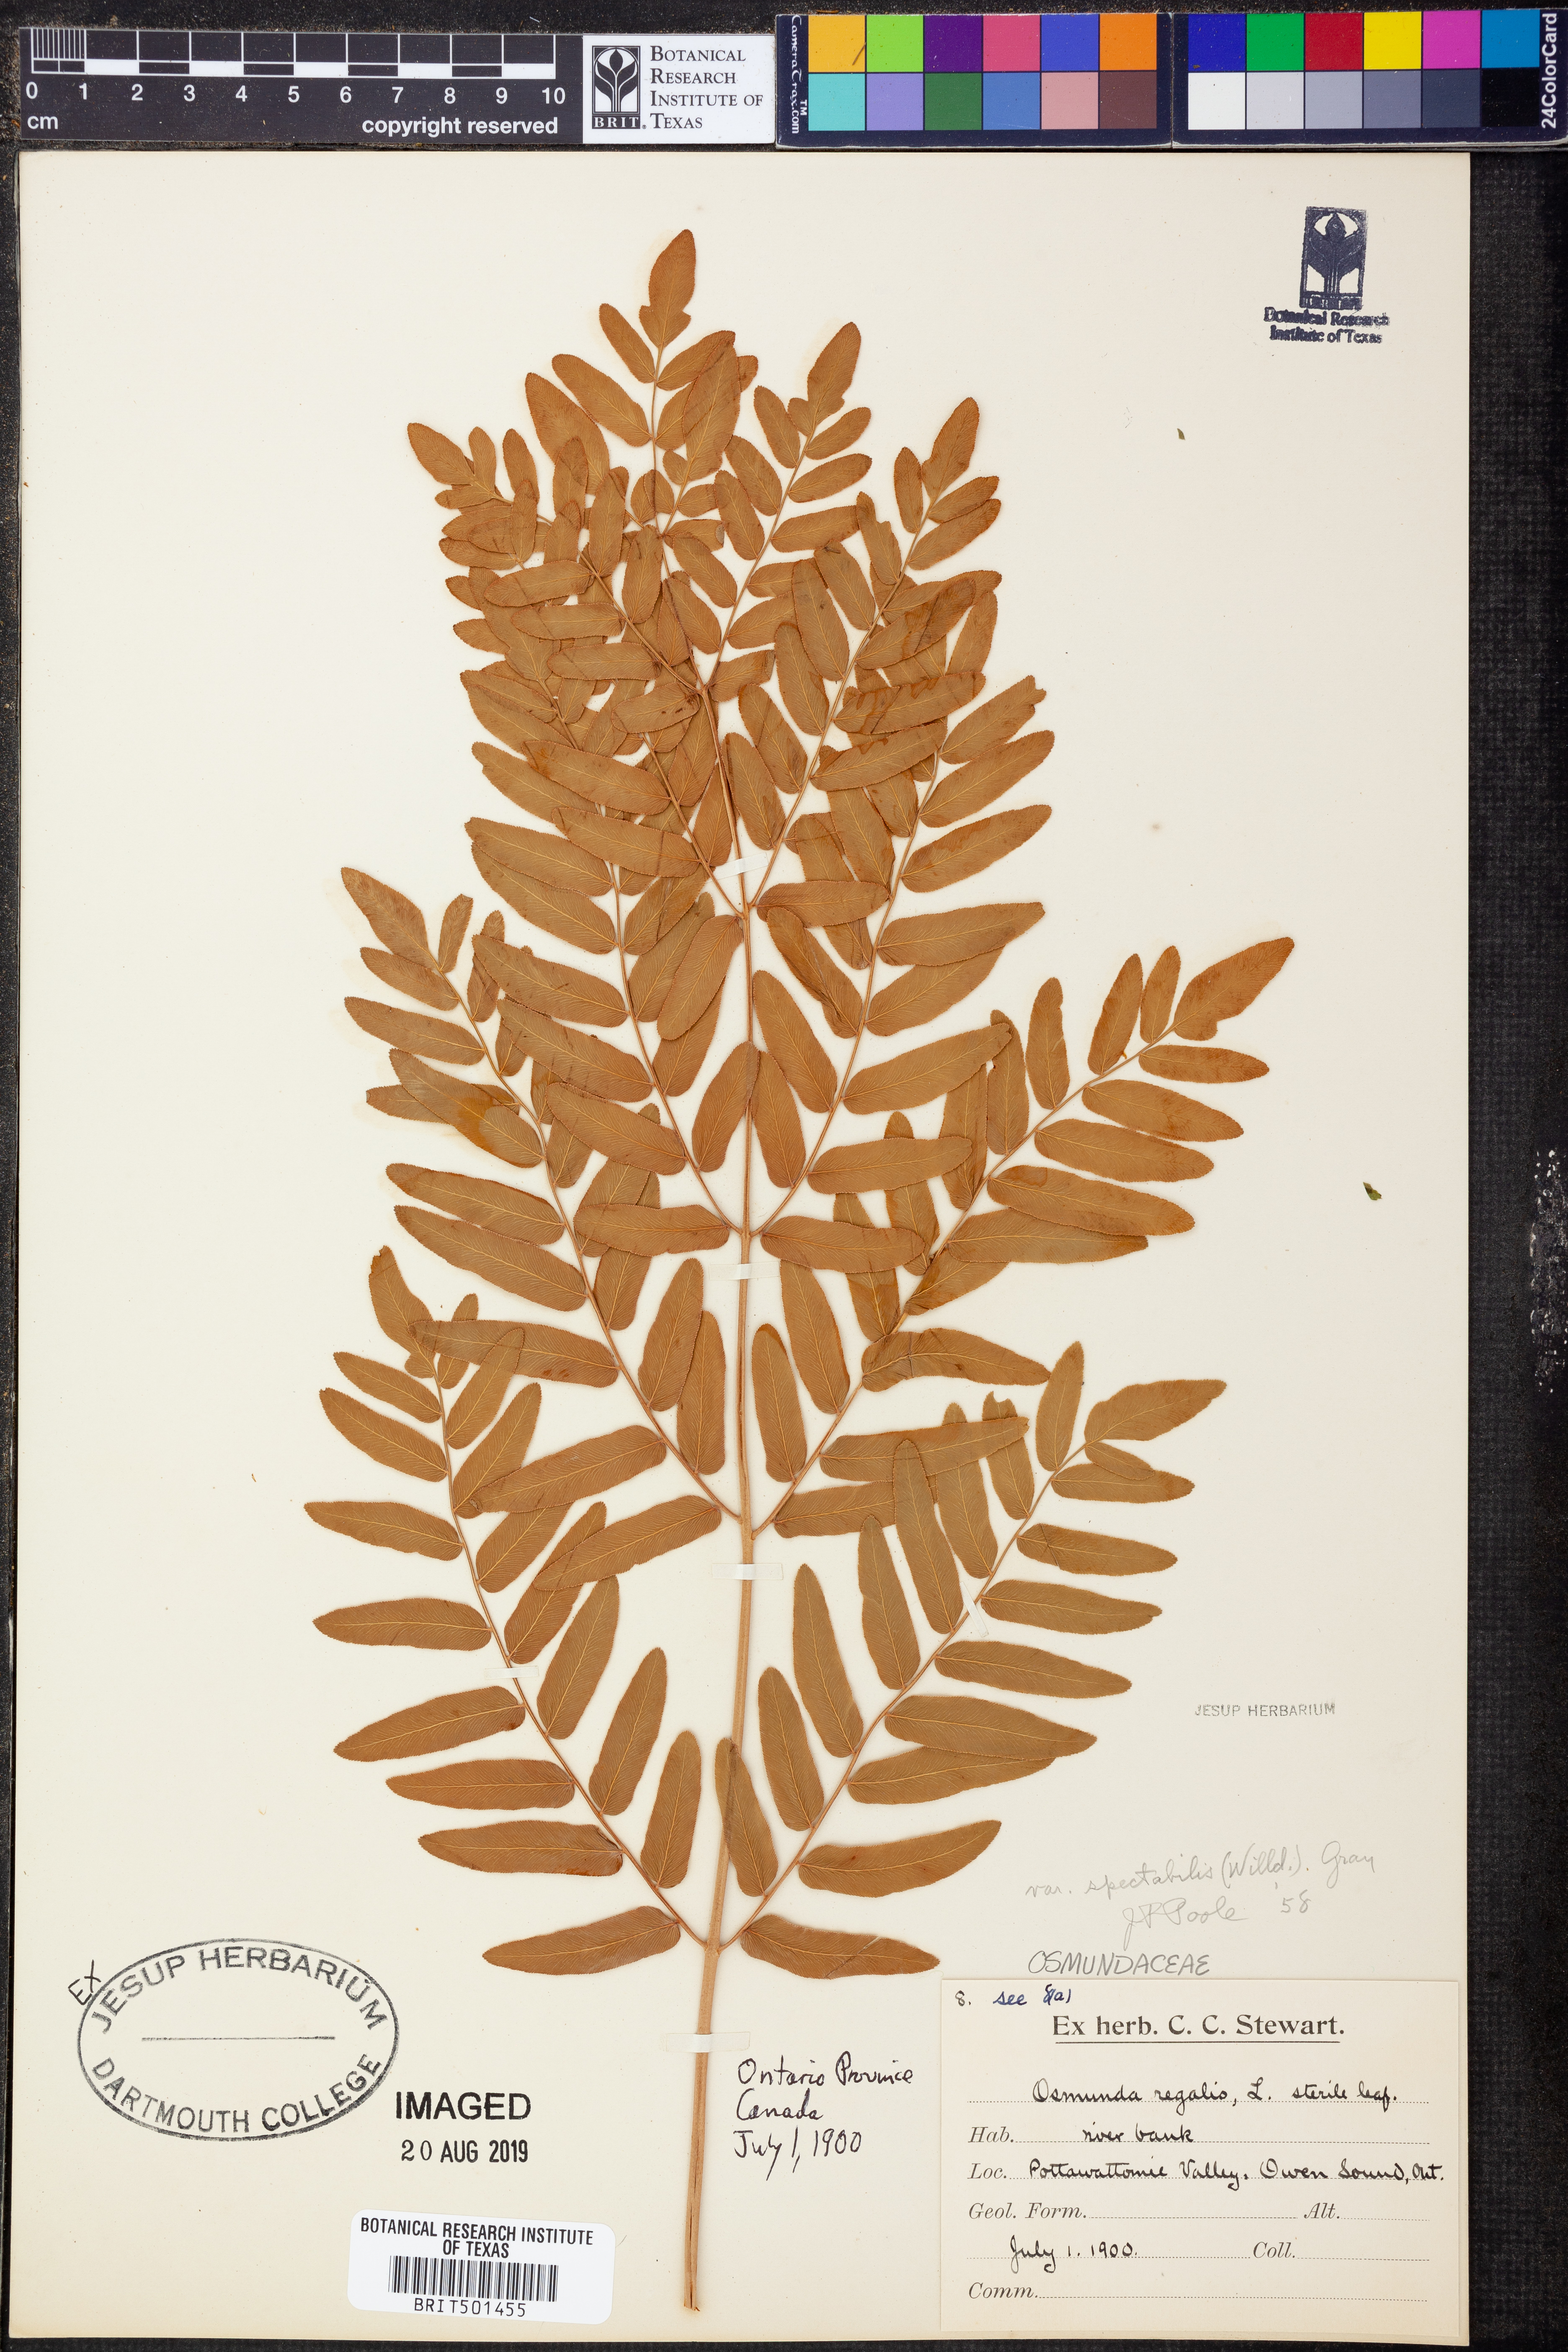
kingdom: Plantae
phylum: Tracheophyta
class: Polypodiopsida
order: Osmundales
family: Osmundaceae
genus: Osmunda
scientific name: Osmunda spectabilis
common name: American royal fern
